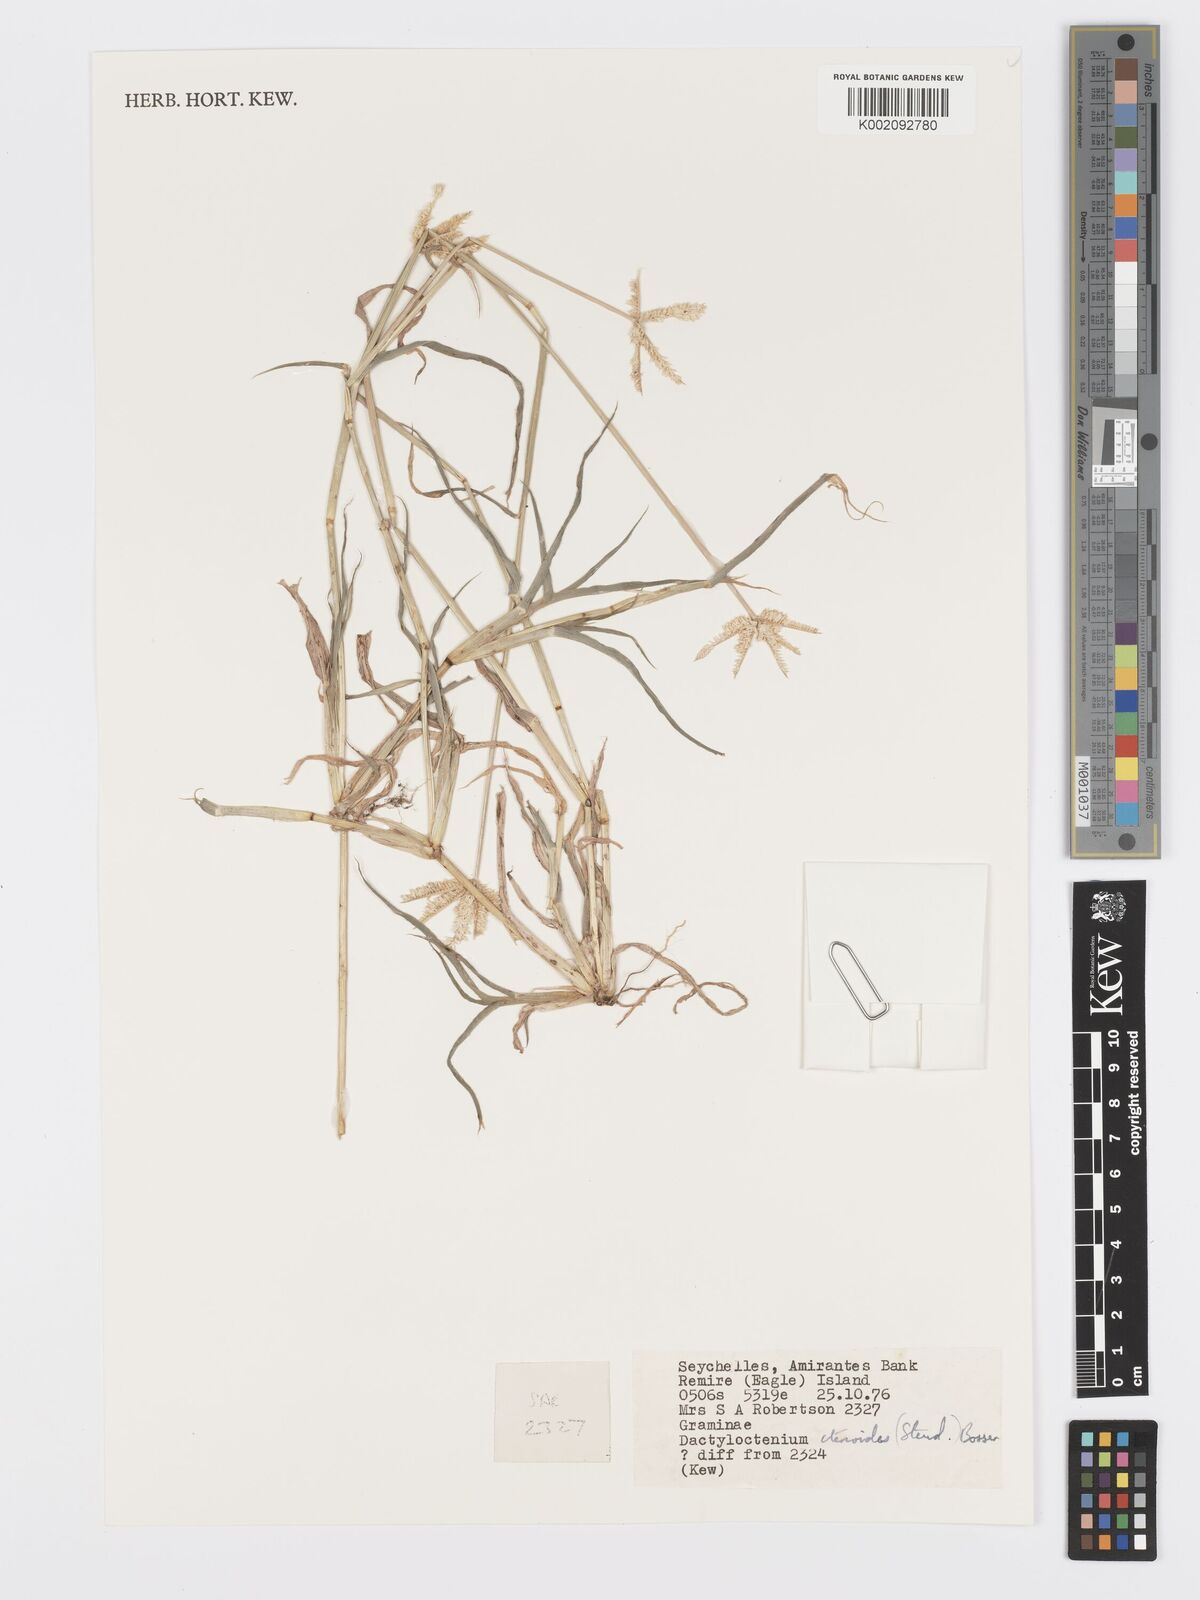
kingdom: Plantae
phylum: Tracheophyta
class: Liliopsida
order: Poales
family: Poaceae
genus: Dactyloctenium
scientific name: Dactyloctenium ctenoides
